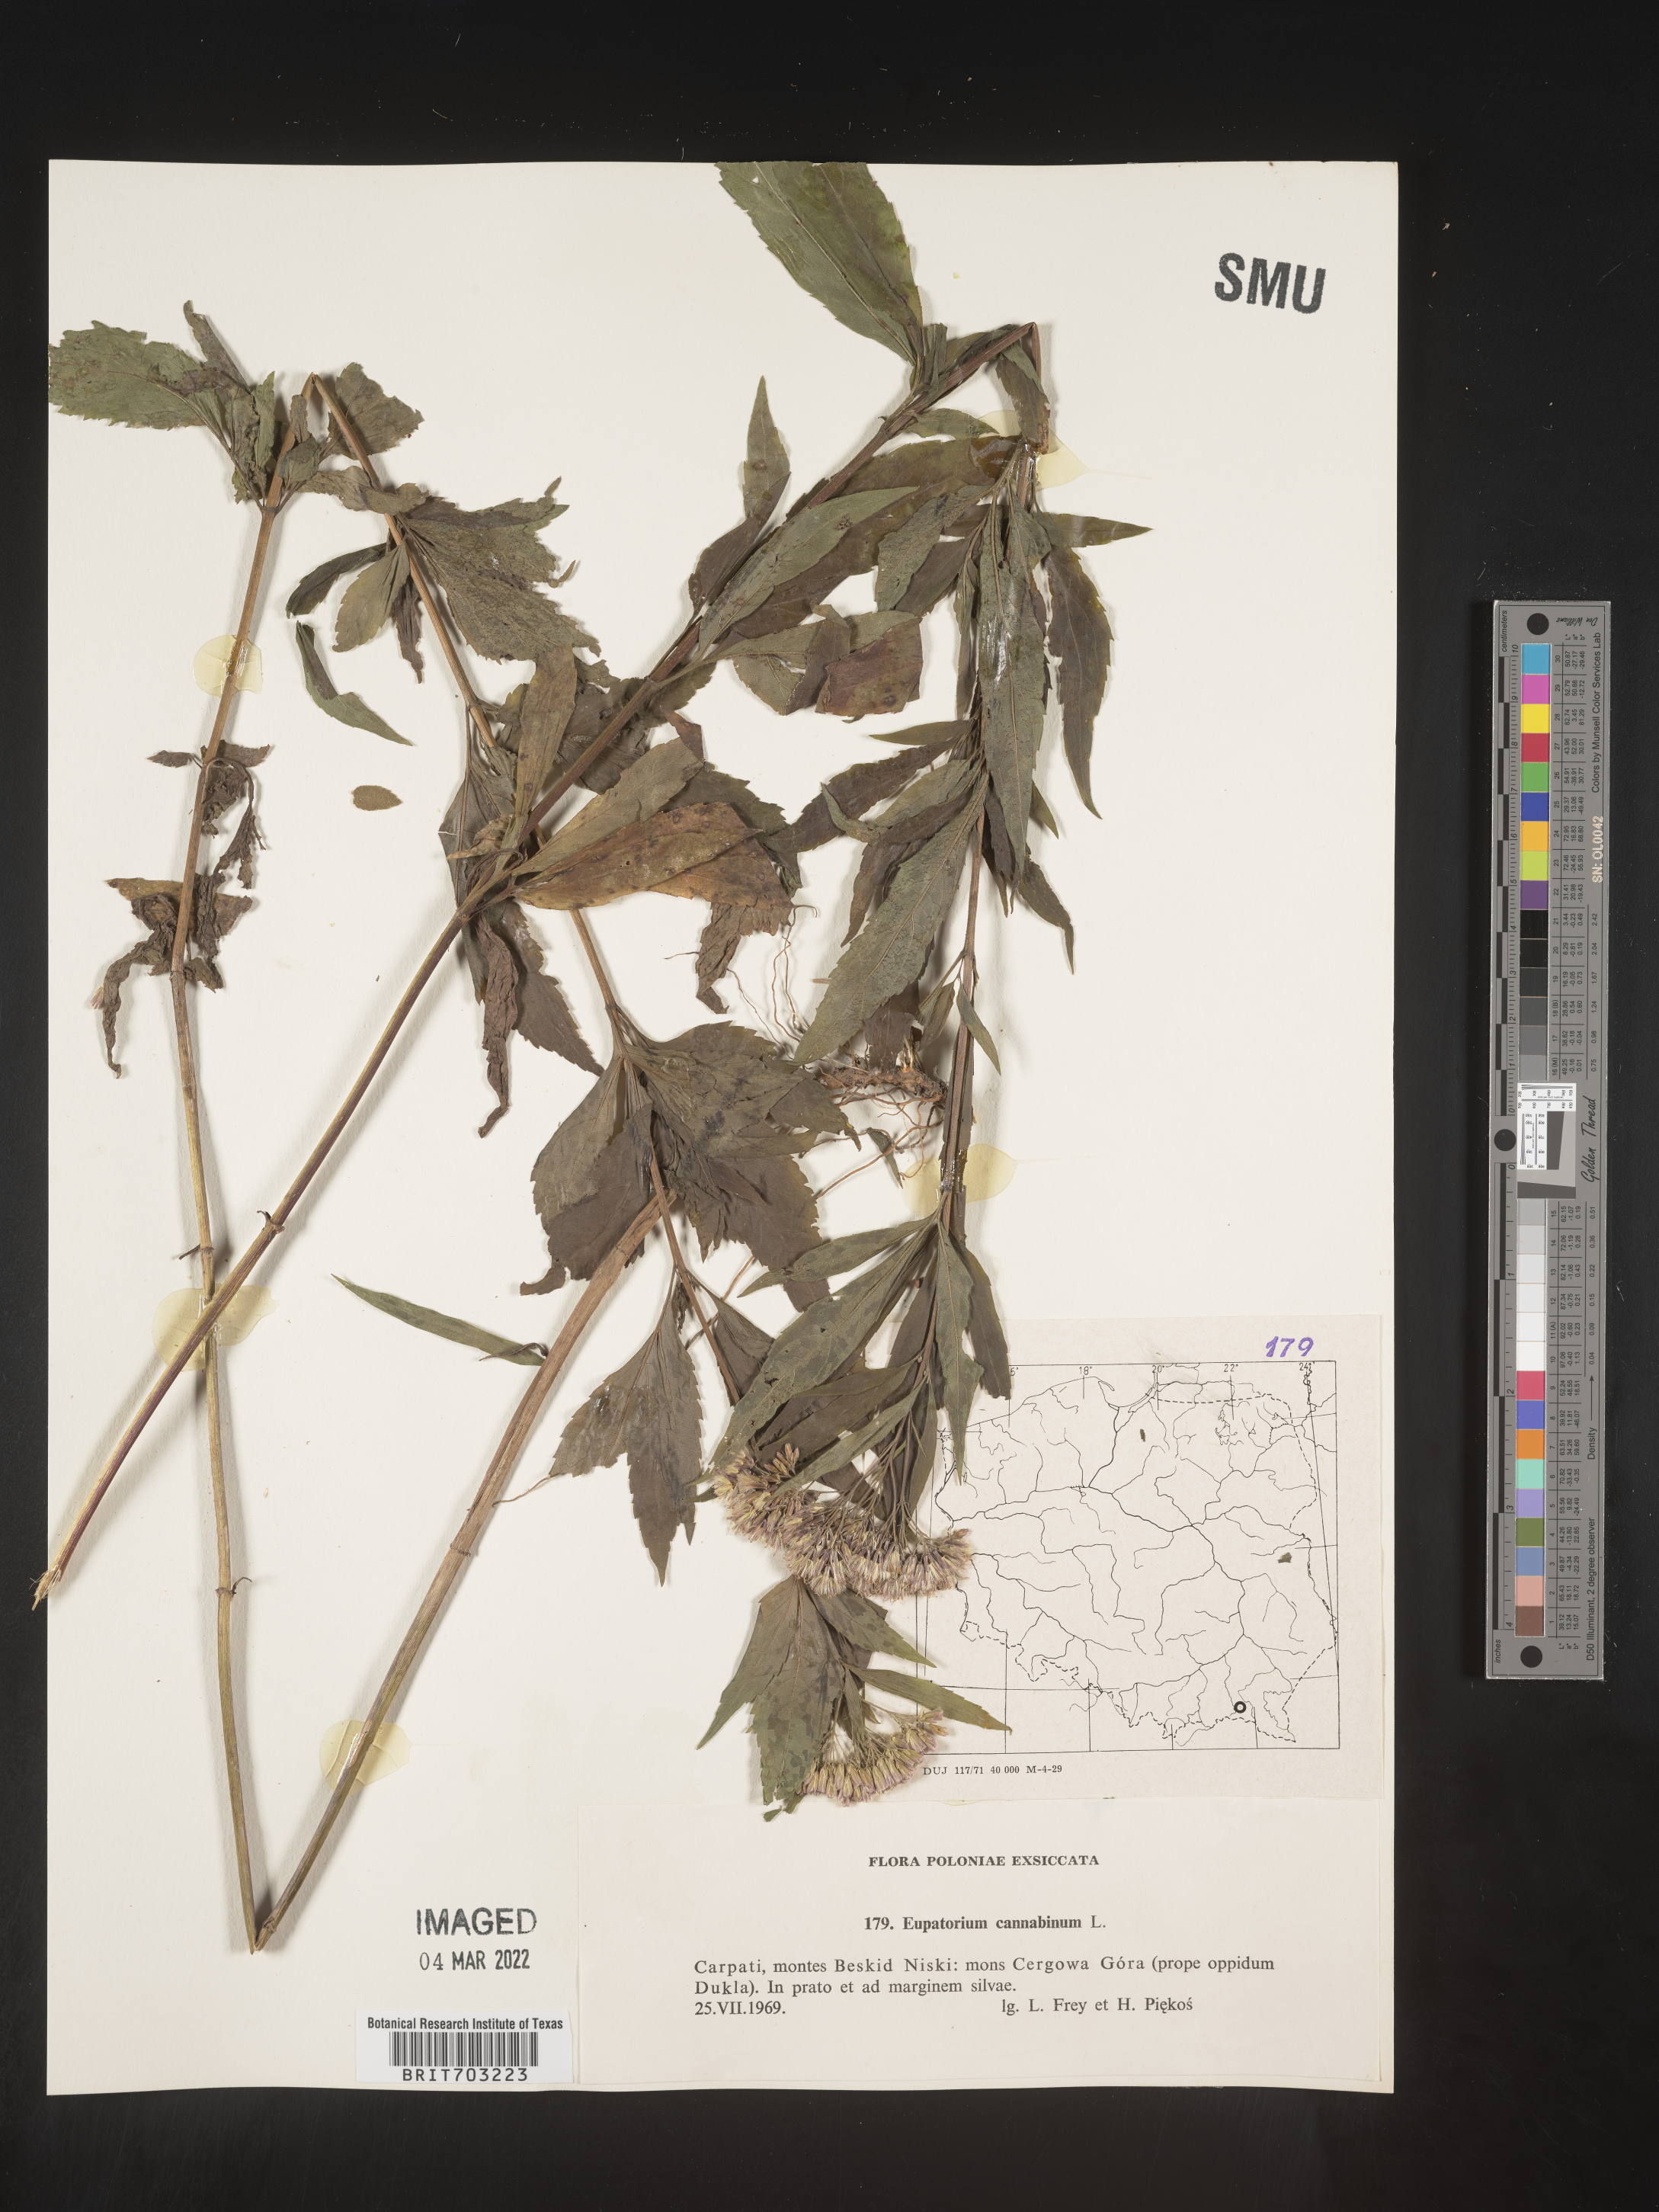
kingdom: Plantae
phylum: Tracheophyta
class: Magnoliopsida
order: Asterales
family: Asteraceae
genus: Eupatorium
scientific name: Eupatorium
